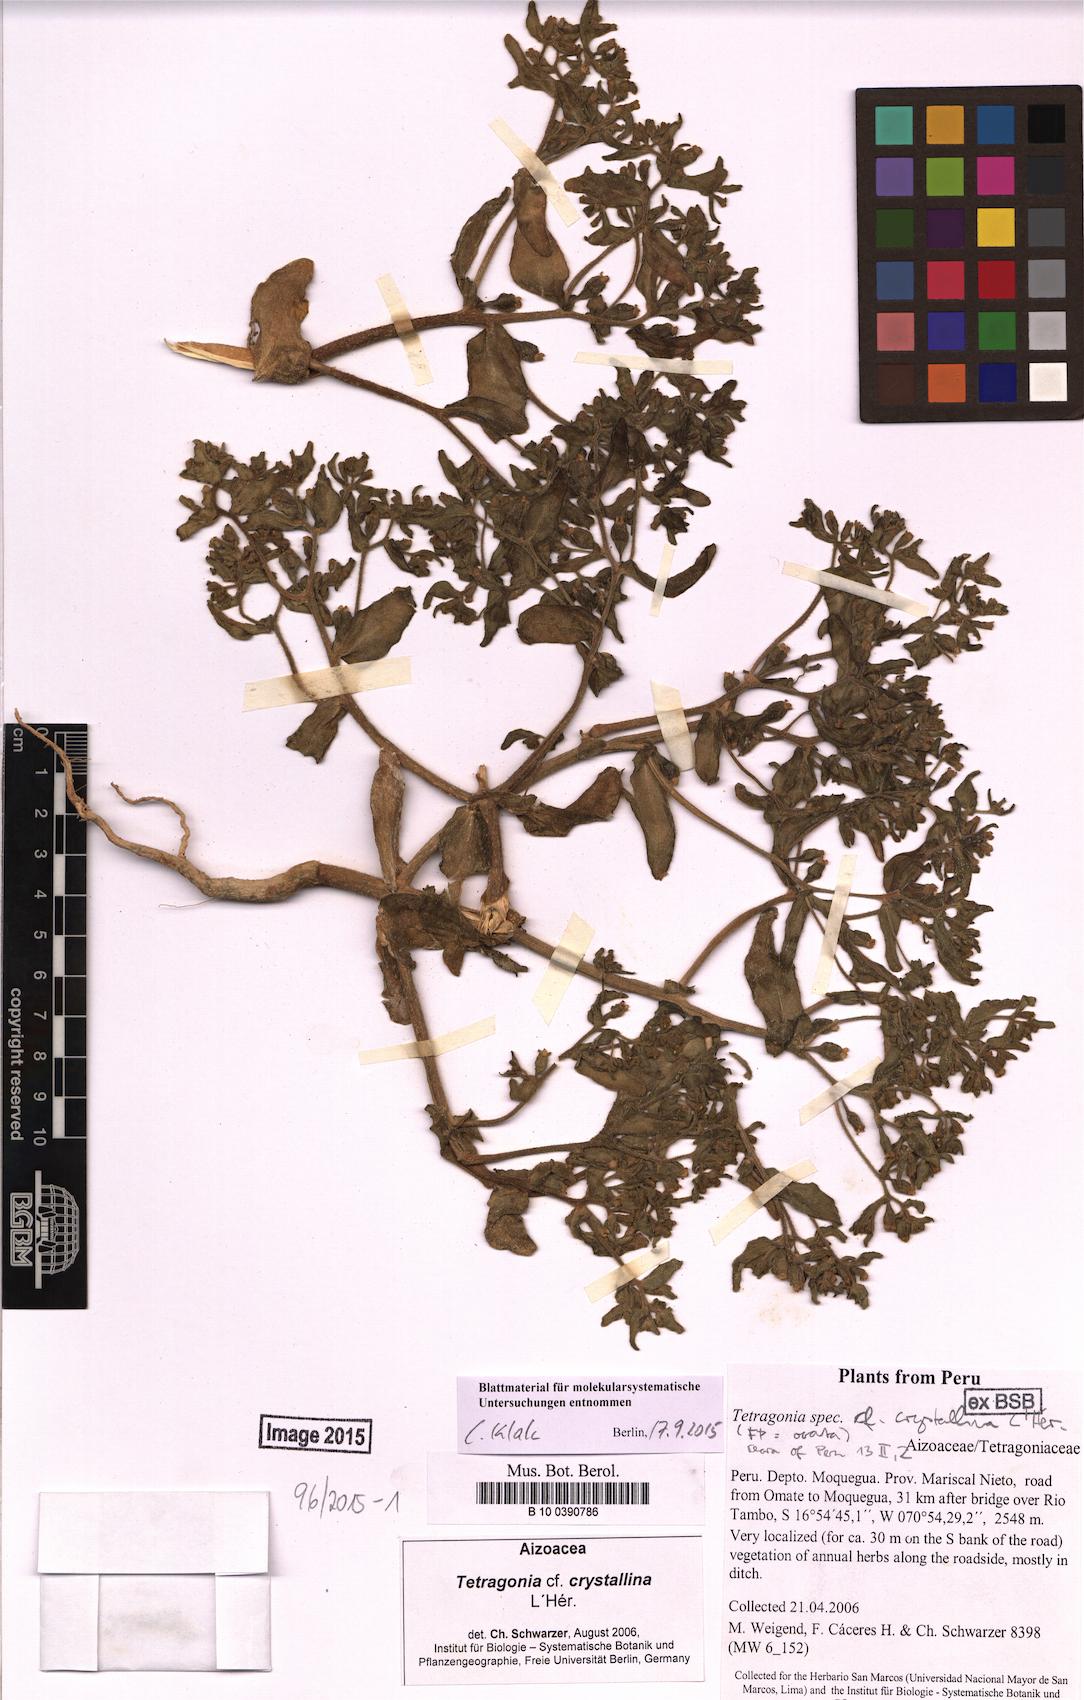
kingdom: Plantae
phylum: Tracheophyta
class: Magnoliopsida
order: Caryophyllales
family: Aizoaceae
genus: Tetragonia
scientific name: Tetragonia crystallina
